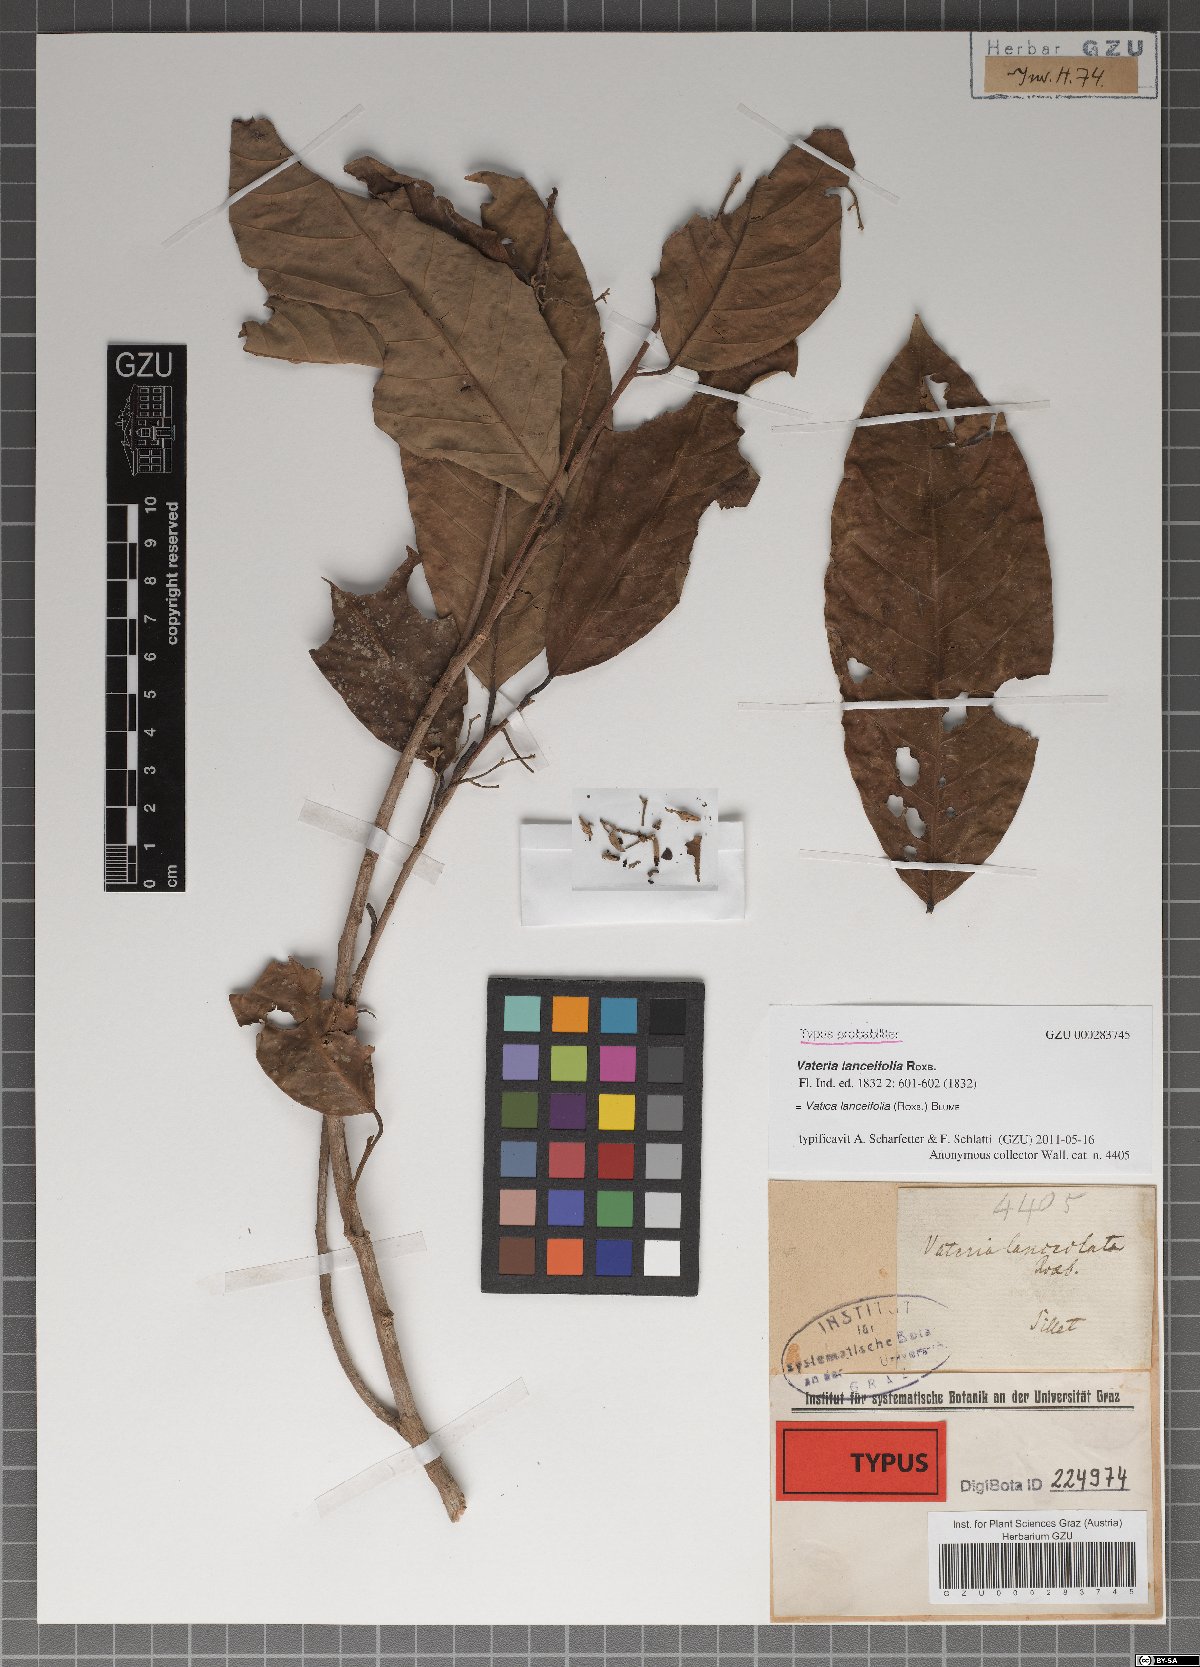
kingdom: Plantae
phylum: Tracheophyta
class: Magnoliopsida
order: Malvales
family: Dipterocarpaceae
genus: Vatica
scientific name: Vatica lanceifolia
